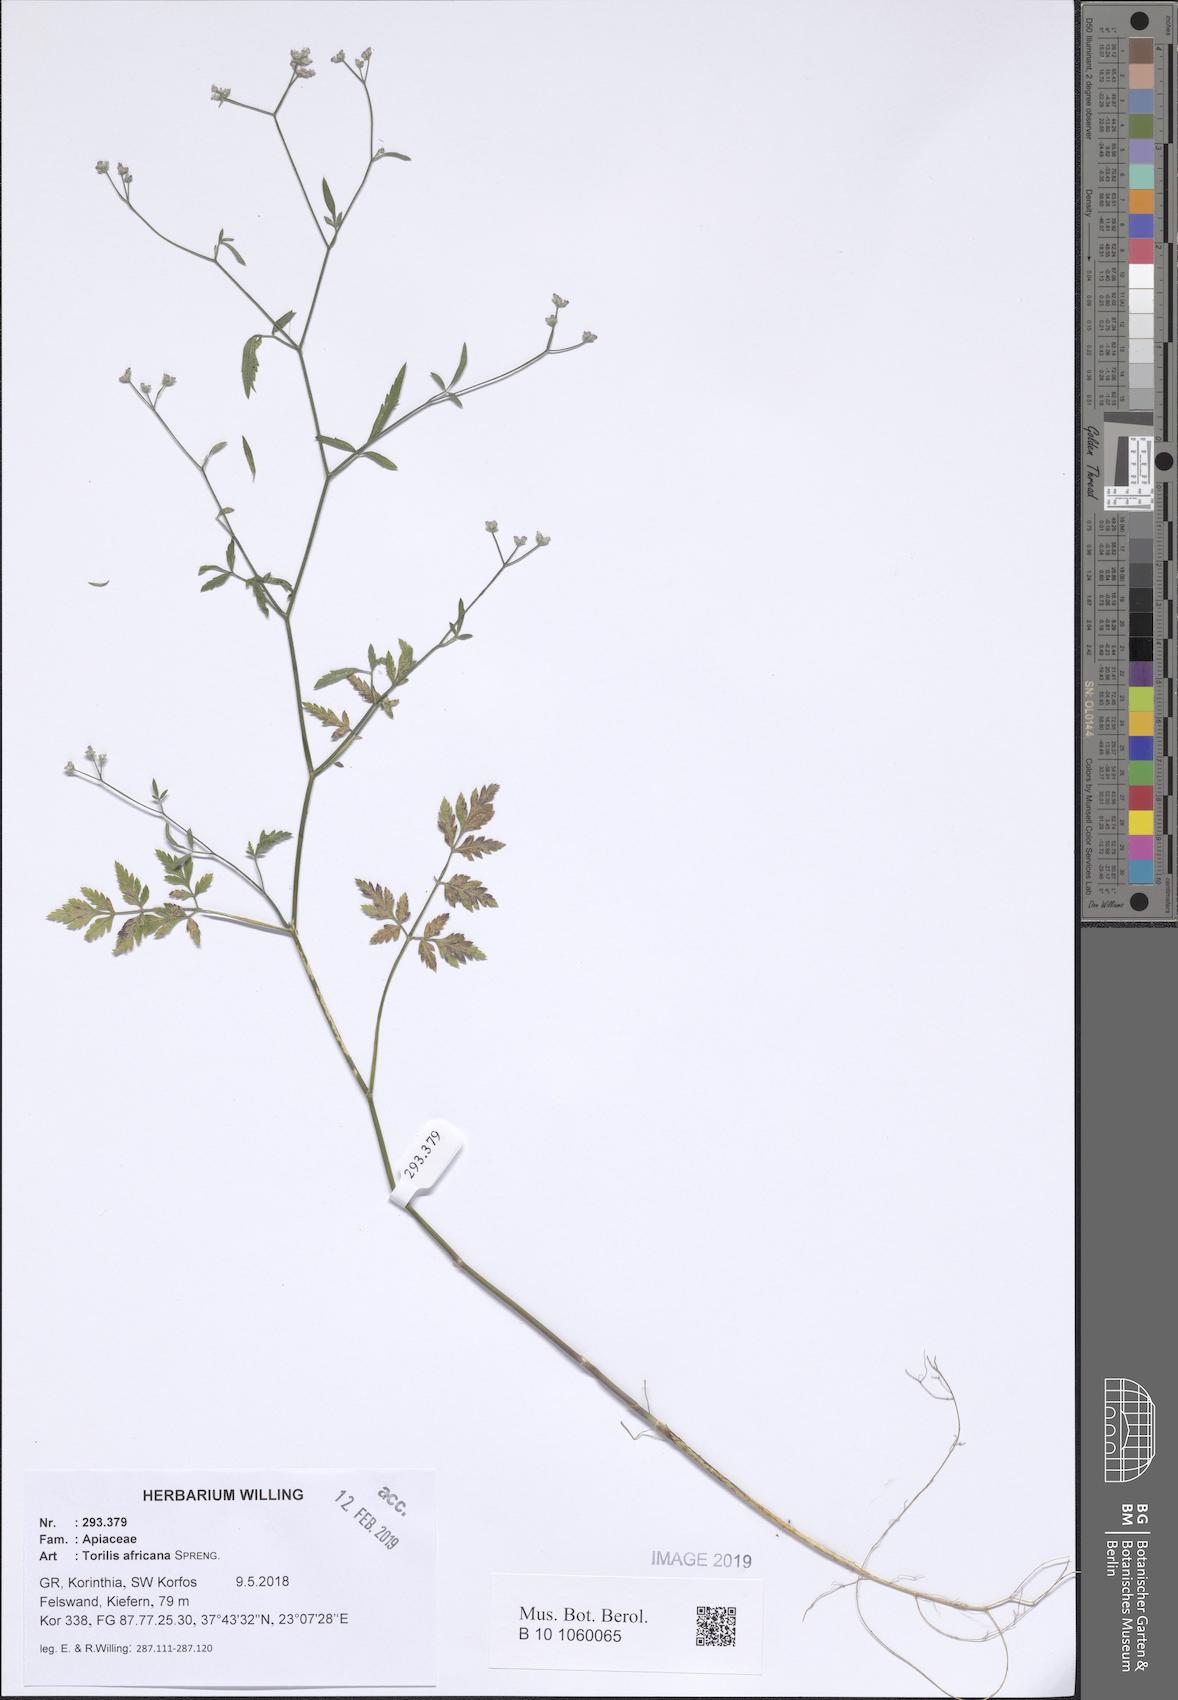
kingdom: Plantae
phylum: Tracheophyta
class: Magnoliopsida
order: Apiales
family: Apiaceae
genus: Torilis
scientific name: Torilis africana
